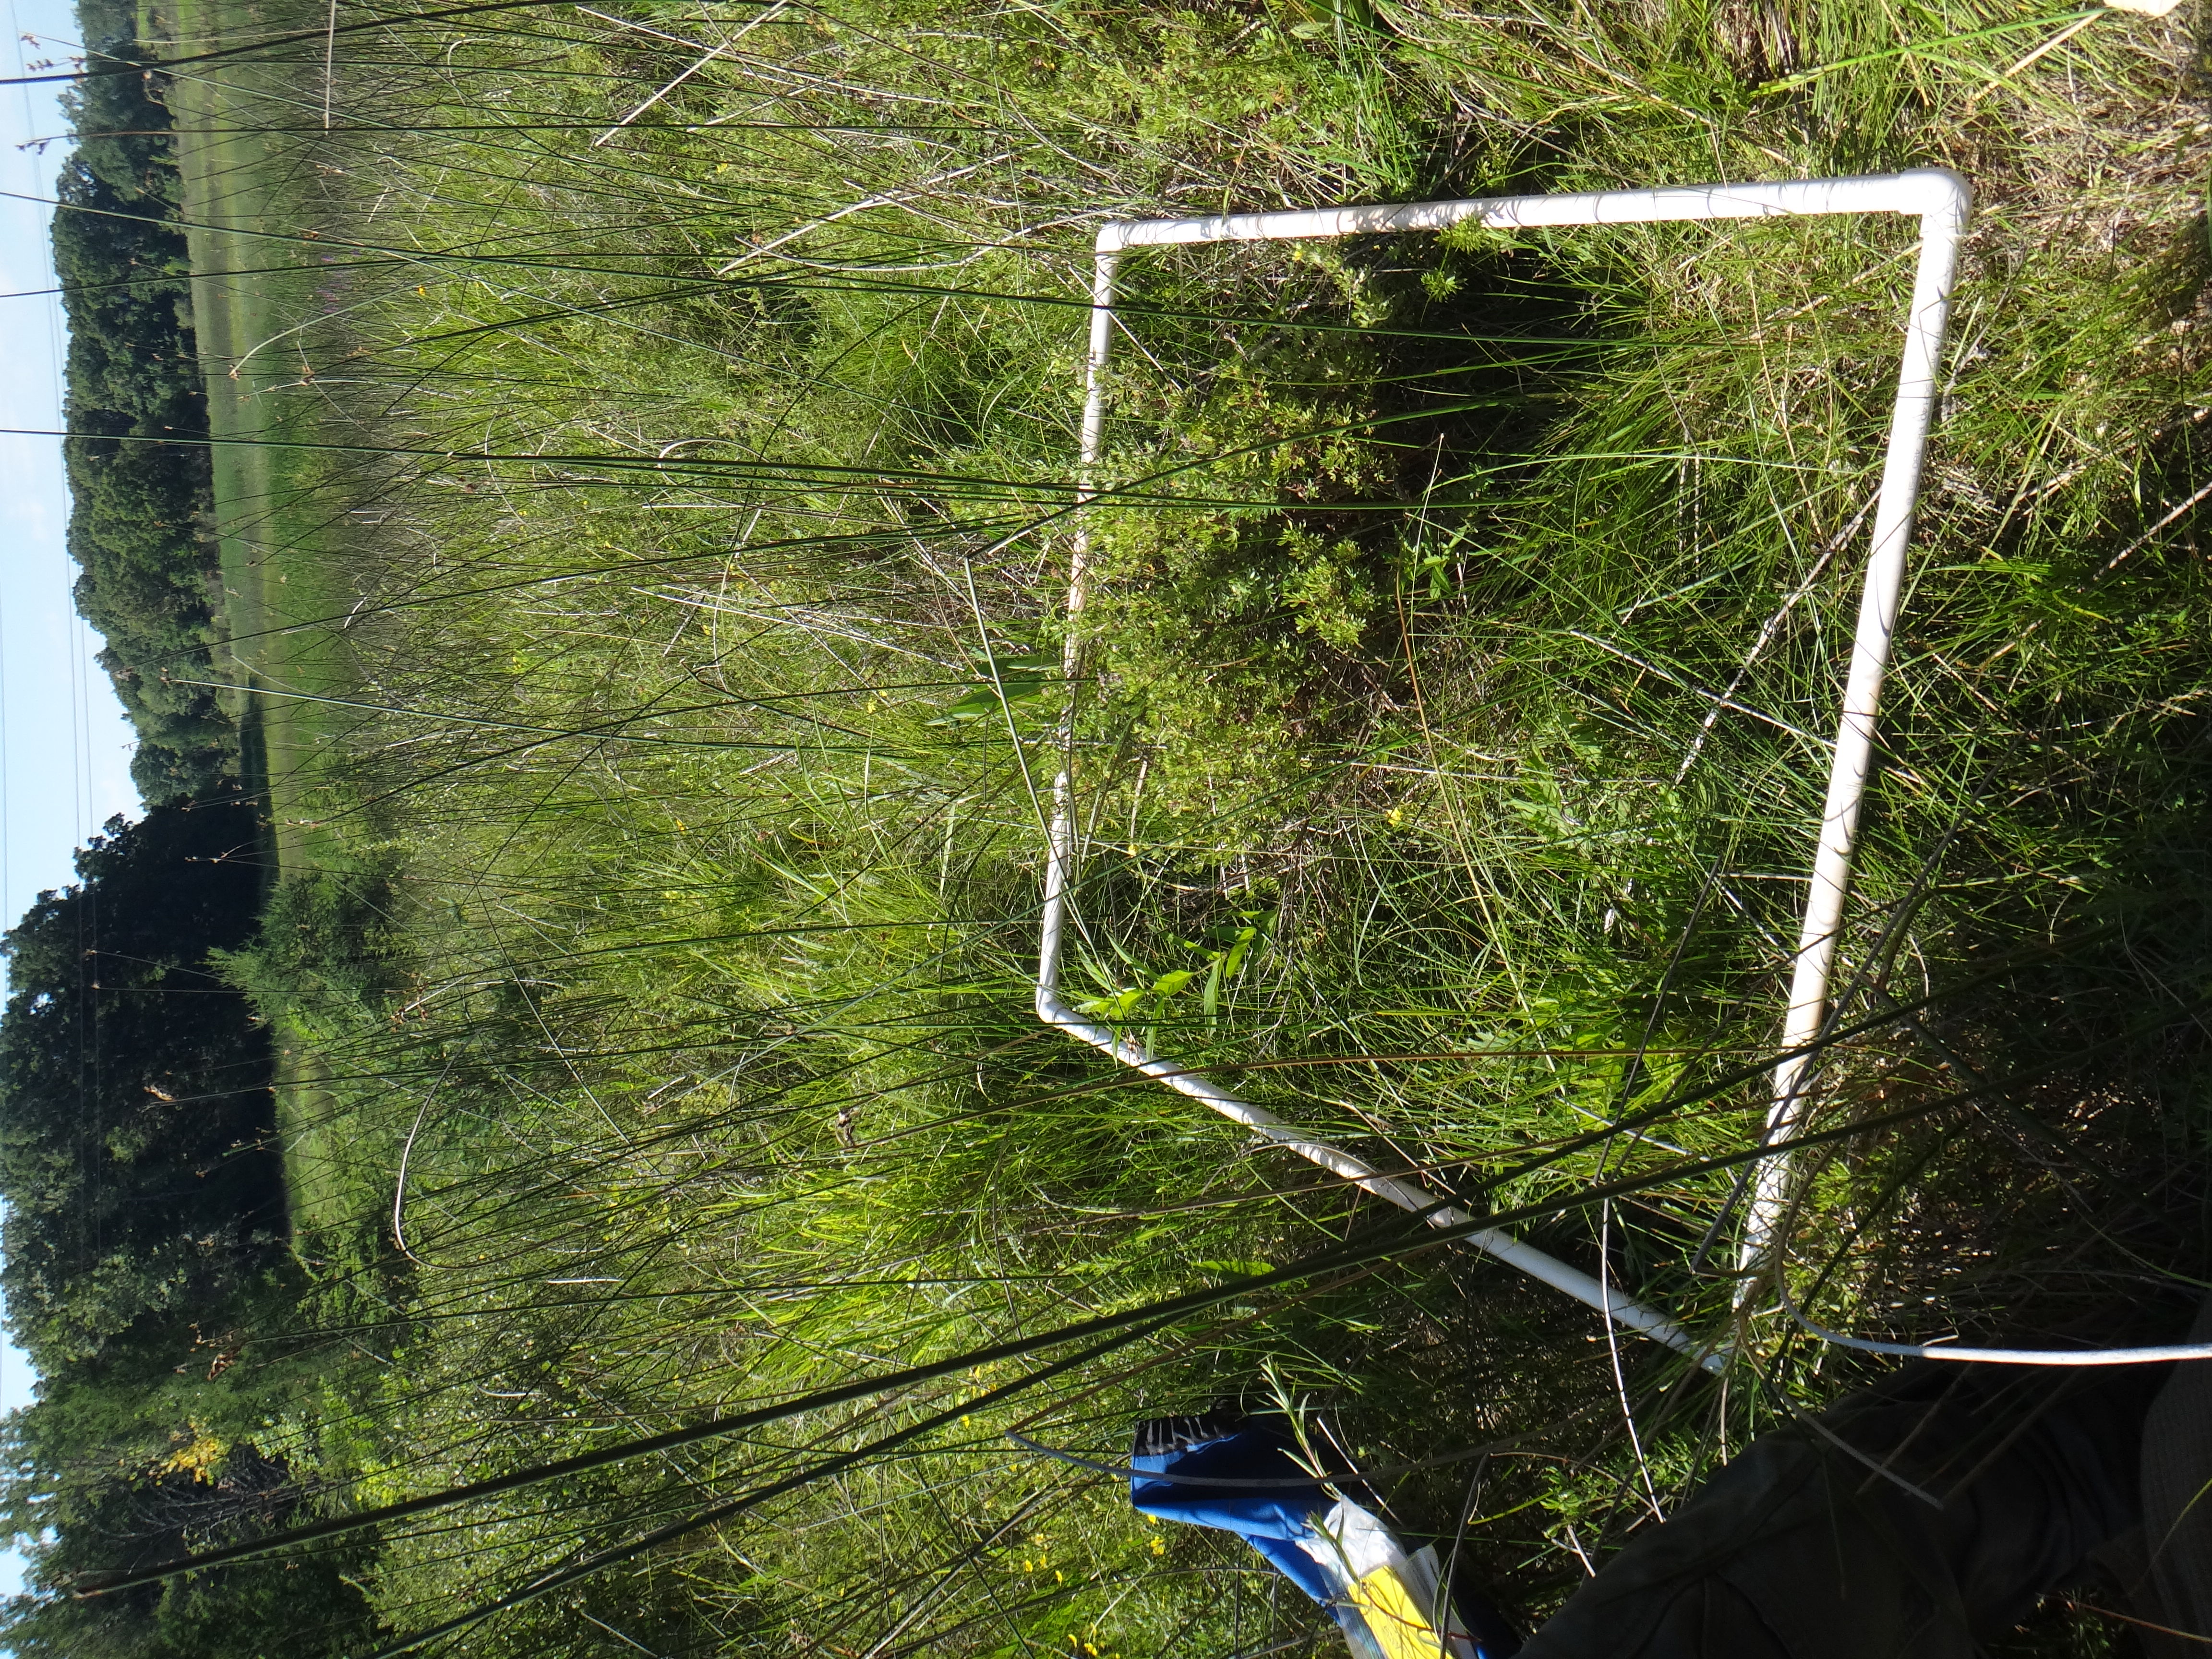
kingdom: Plantae
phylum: Tracheophyta
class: Magnoliopsida
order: Asterales
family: Asteraceae
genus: Solidago
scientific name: Solidago ohioensis
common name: Ohio goldenrod
